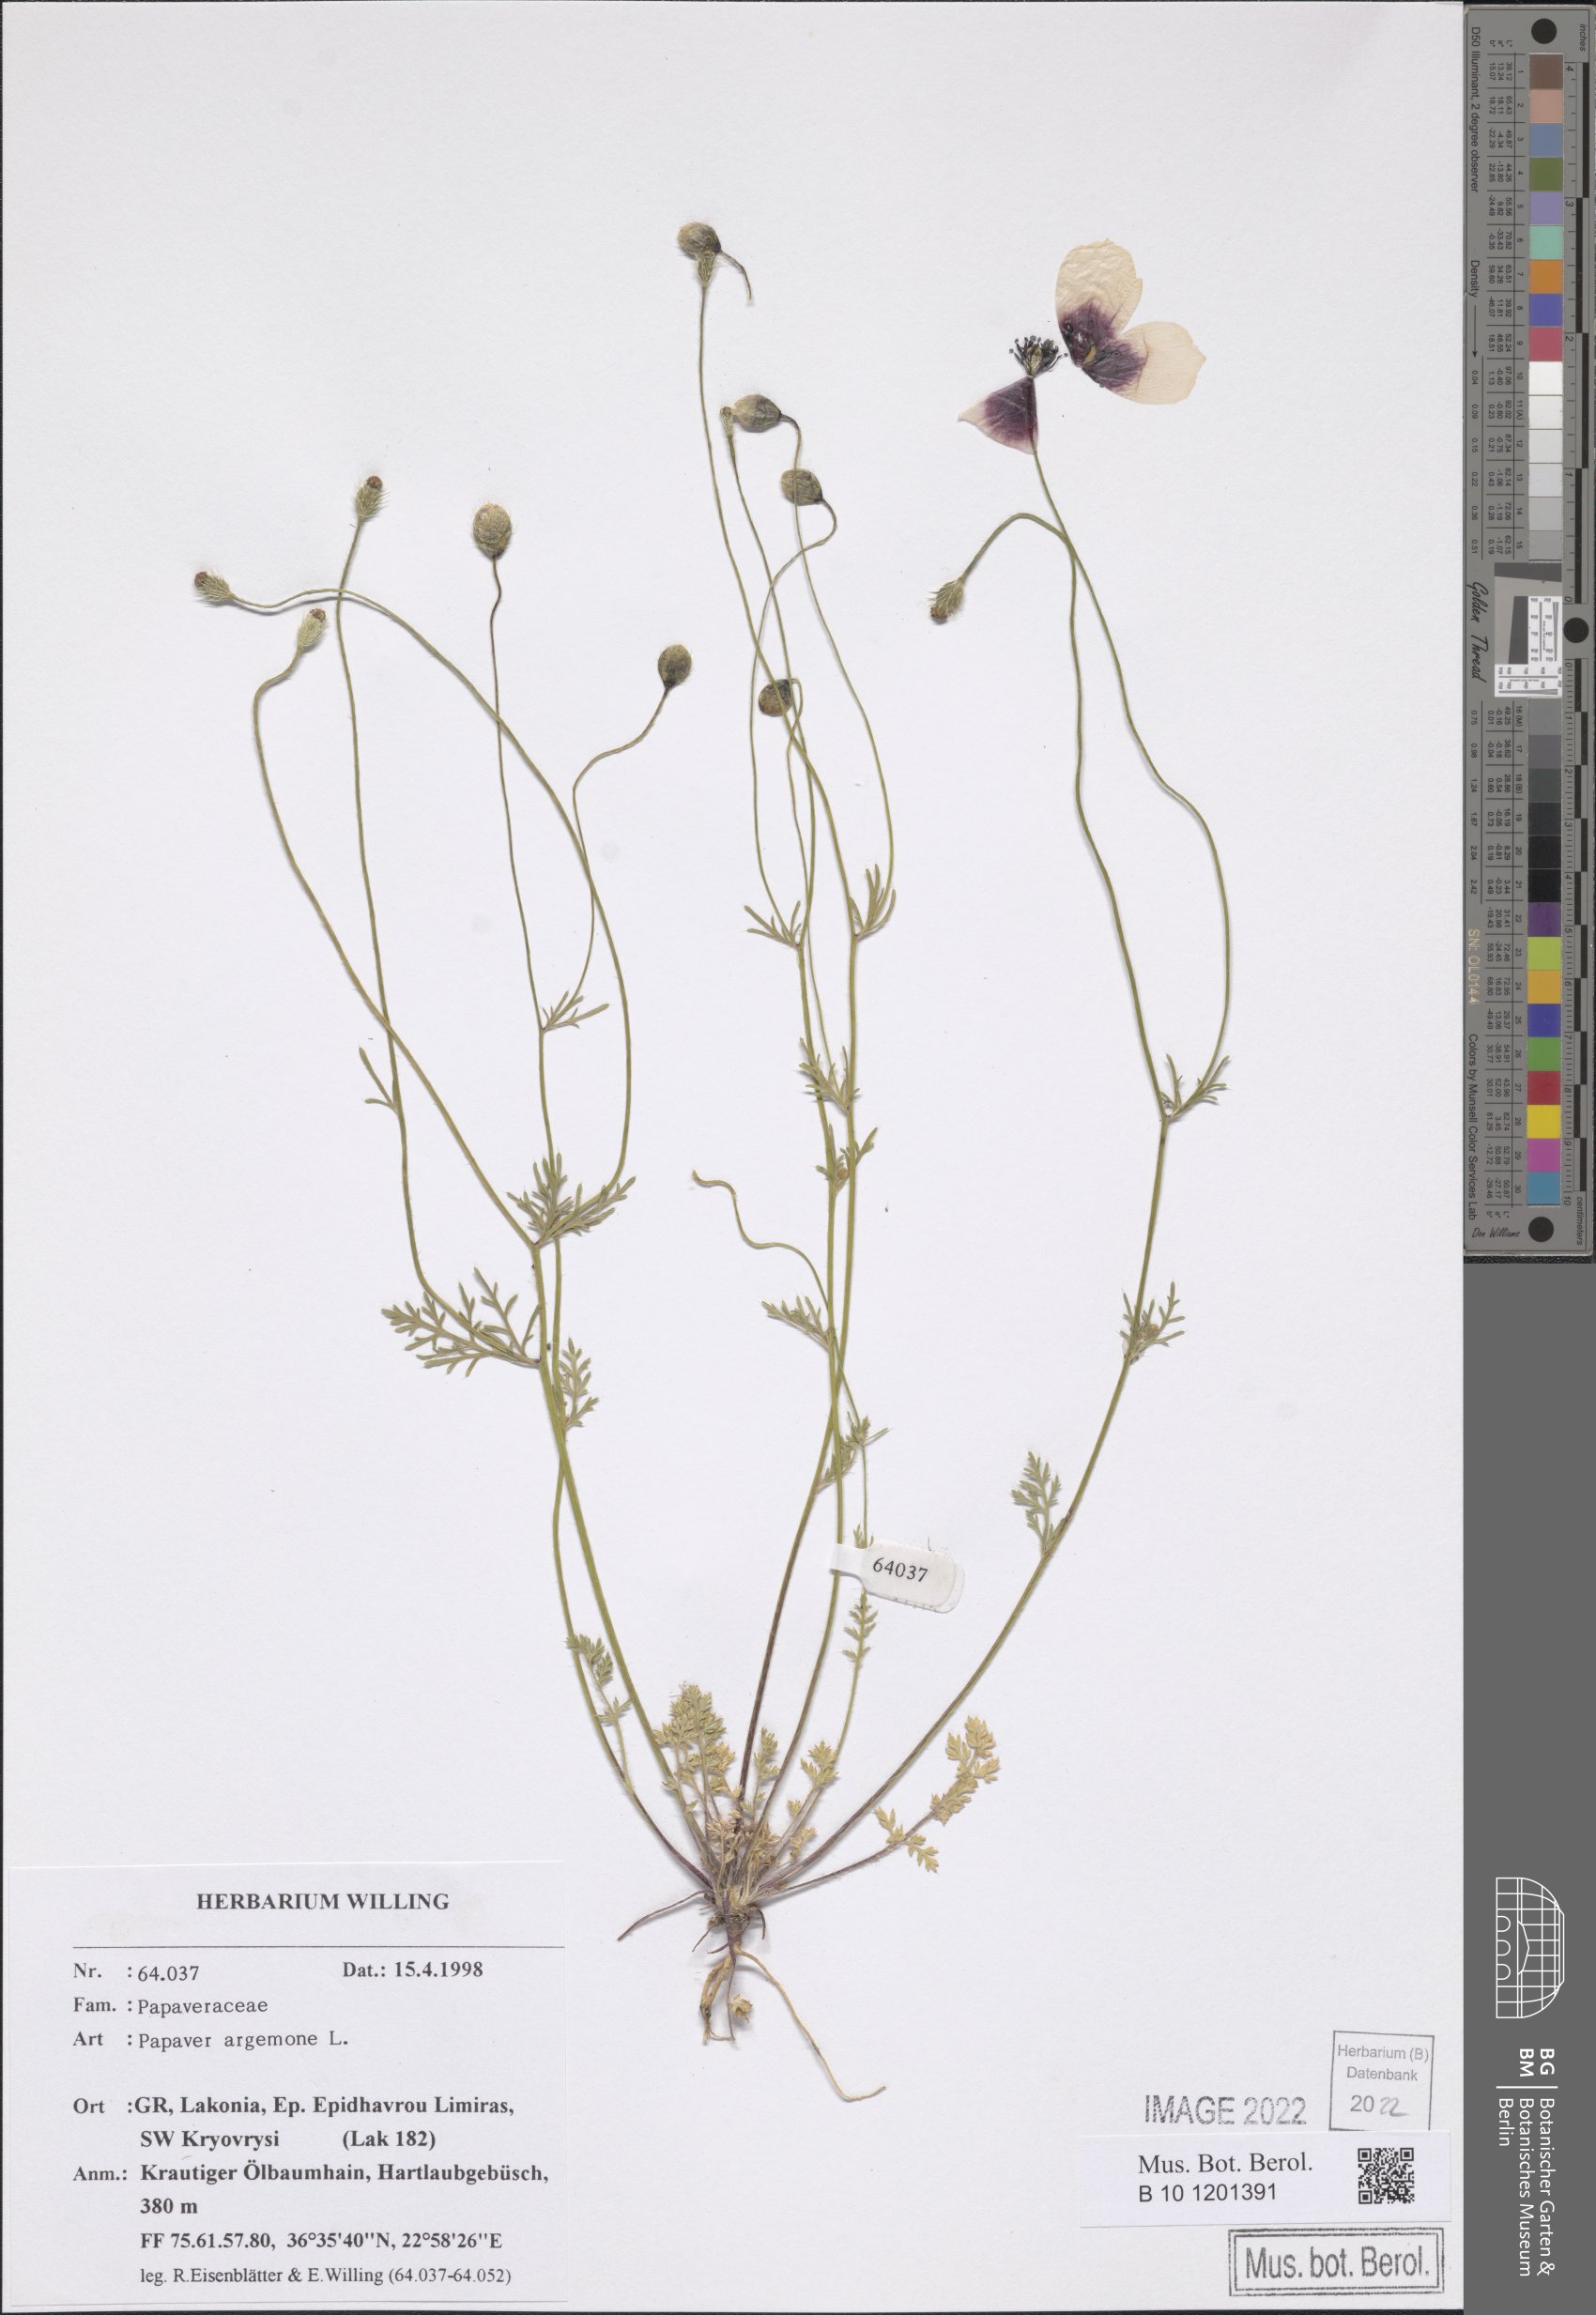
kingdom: Plantae
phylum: Tracheophyta
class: Magnoliopsida
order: Ranunculales
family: Papaveraceae
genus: Roemeria
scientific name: Roemeria argemone
